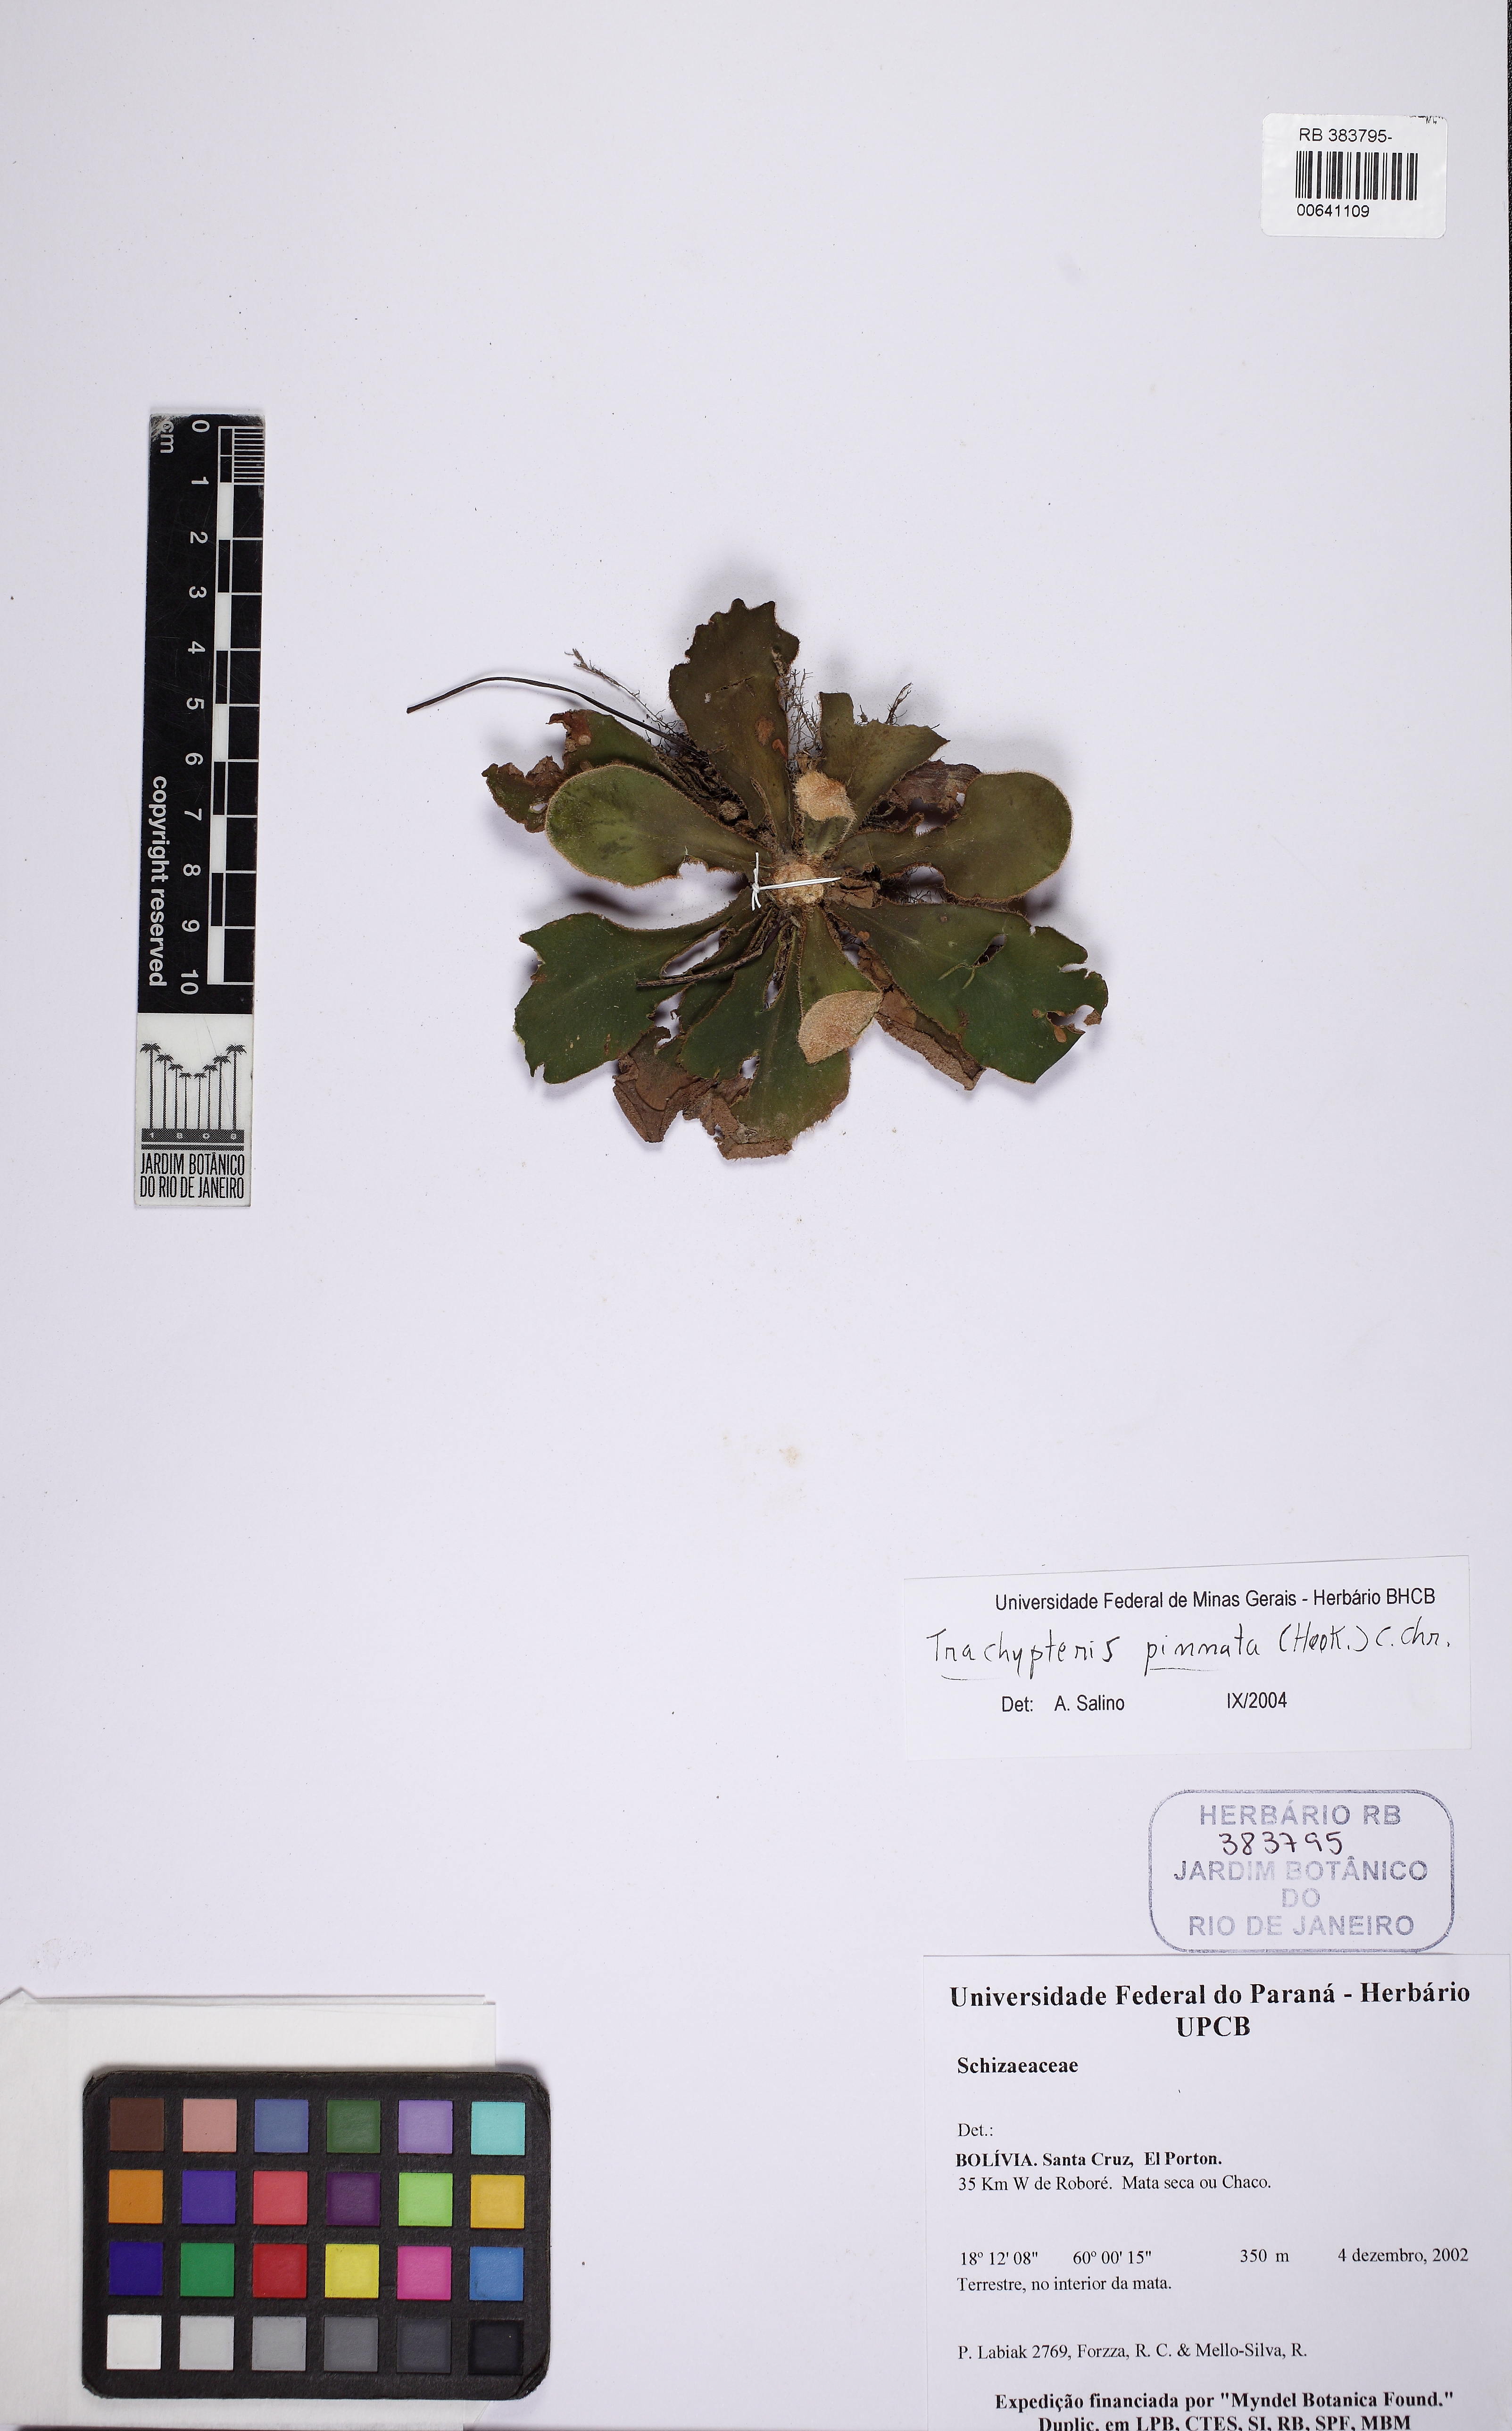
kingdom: Plantae
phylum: Tracheophyta
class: Polypodiopsida
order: Polypodiales
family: Pteridaceae
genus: Trachypteris
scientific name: Trachypteris pinnata
